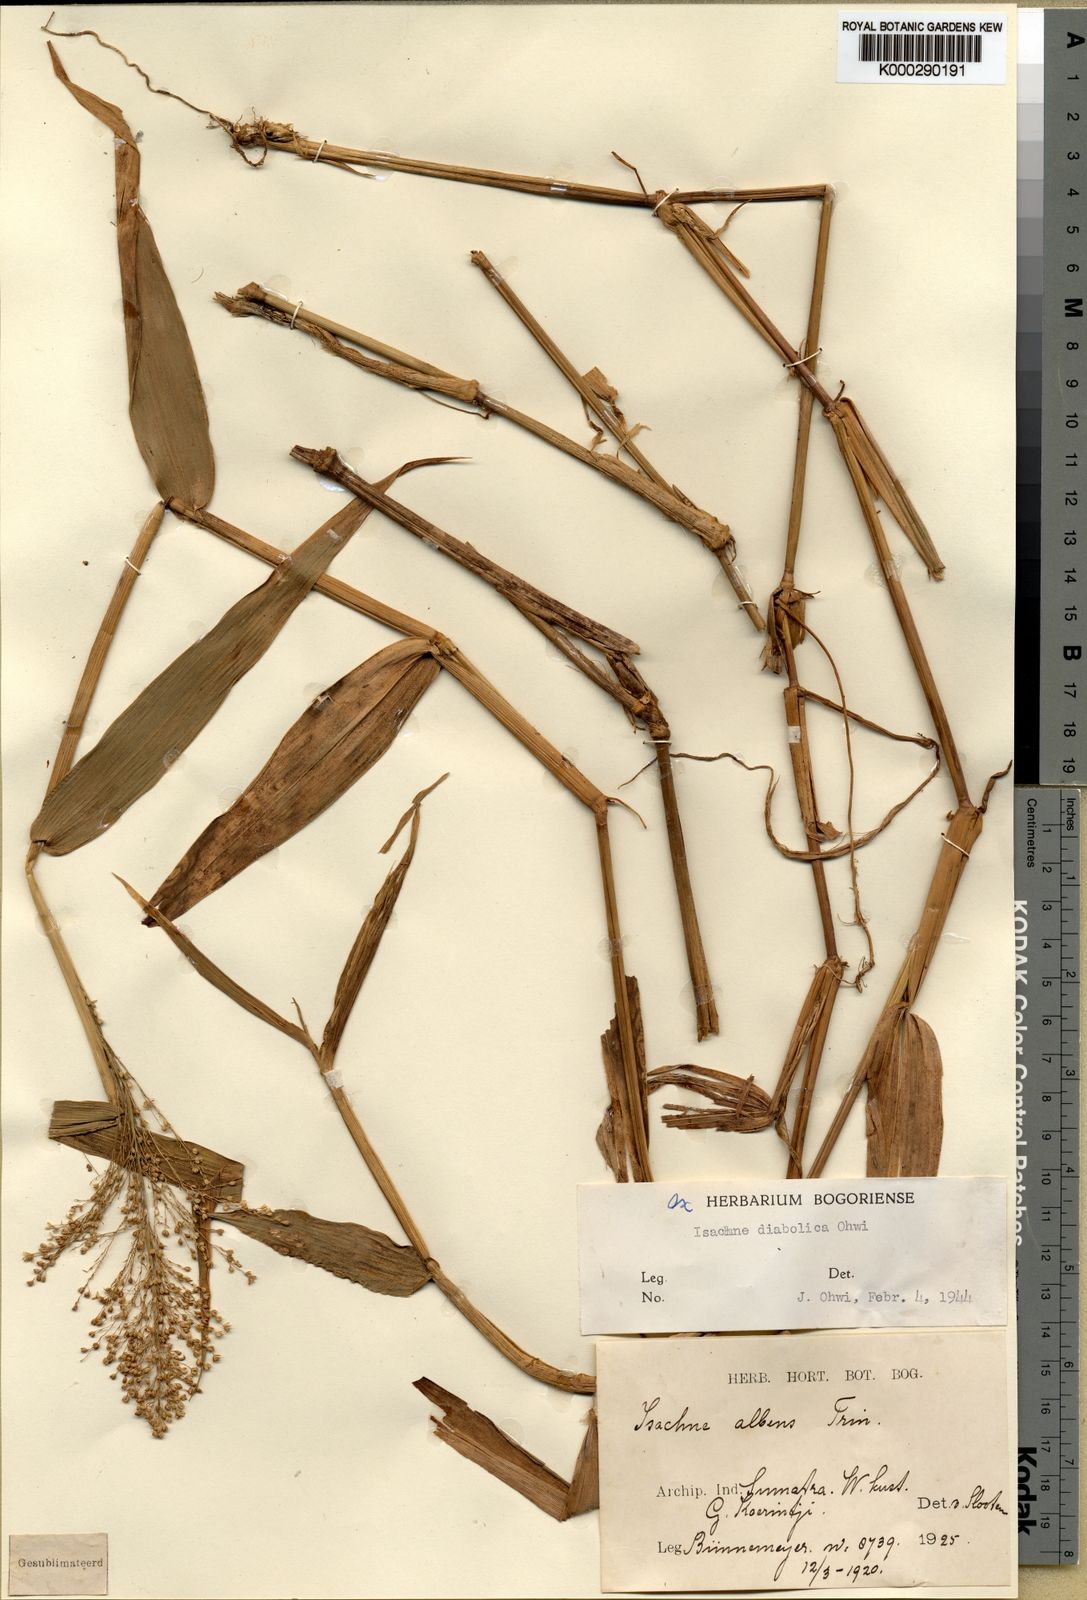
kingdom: Plantae
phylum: Tracheophyta
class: Liliopsida
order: Poales
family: Poaceae
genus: Isachne
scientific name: Isachne diabolica
